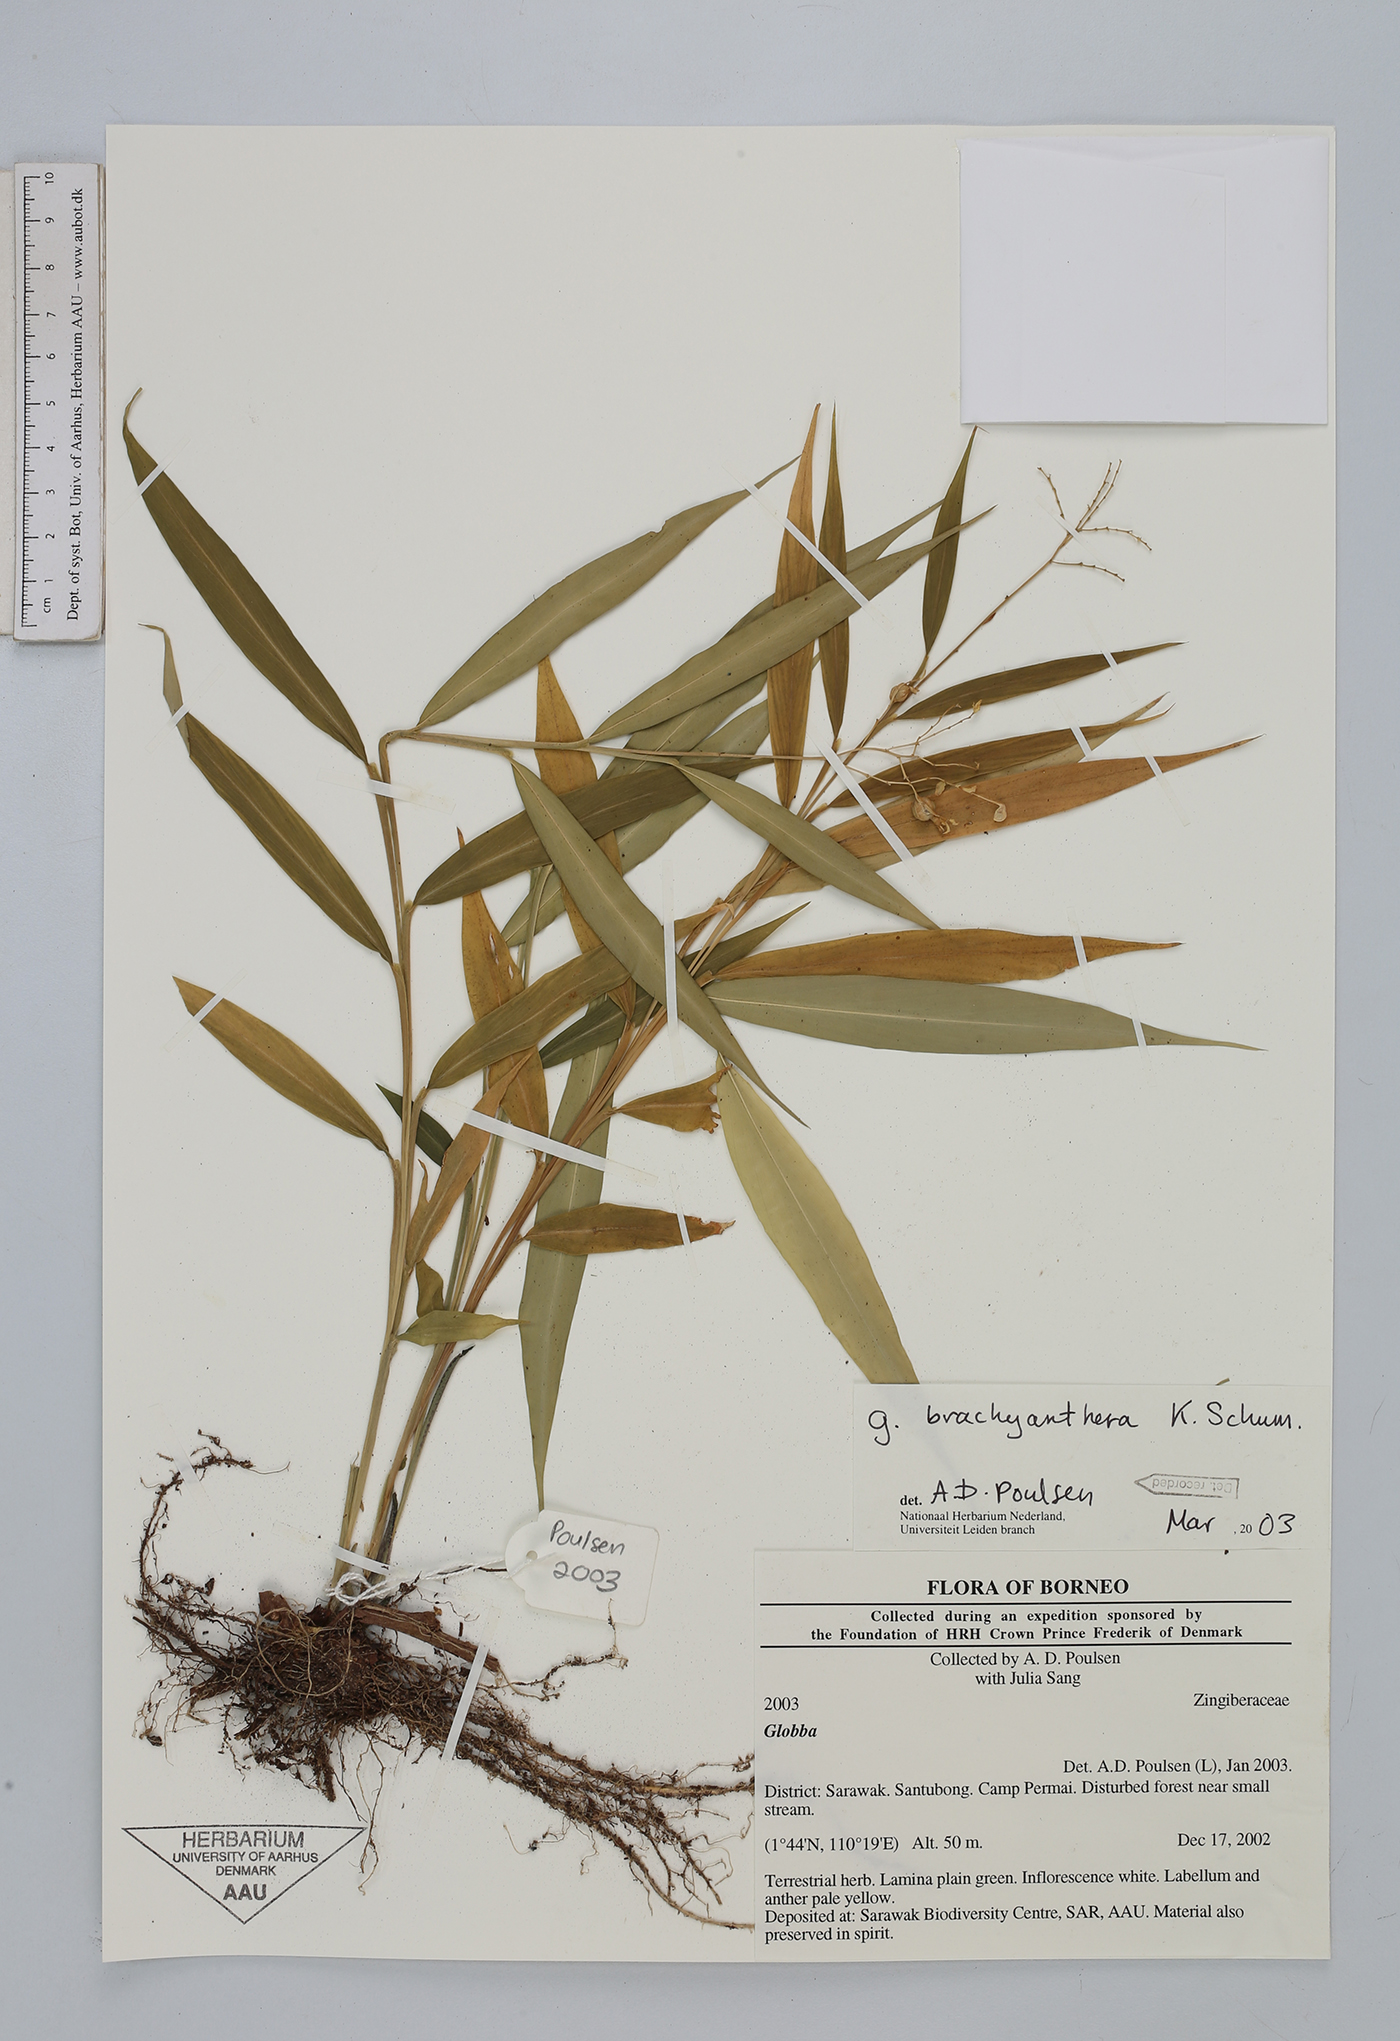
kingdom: Plantae
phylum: Tracheophyta
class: Liliopsida
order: Zingiberales
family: Zingiberaceae
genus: Globba
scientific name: Globba brachyanthera
